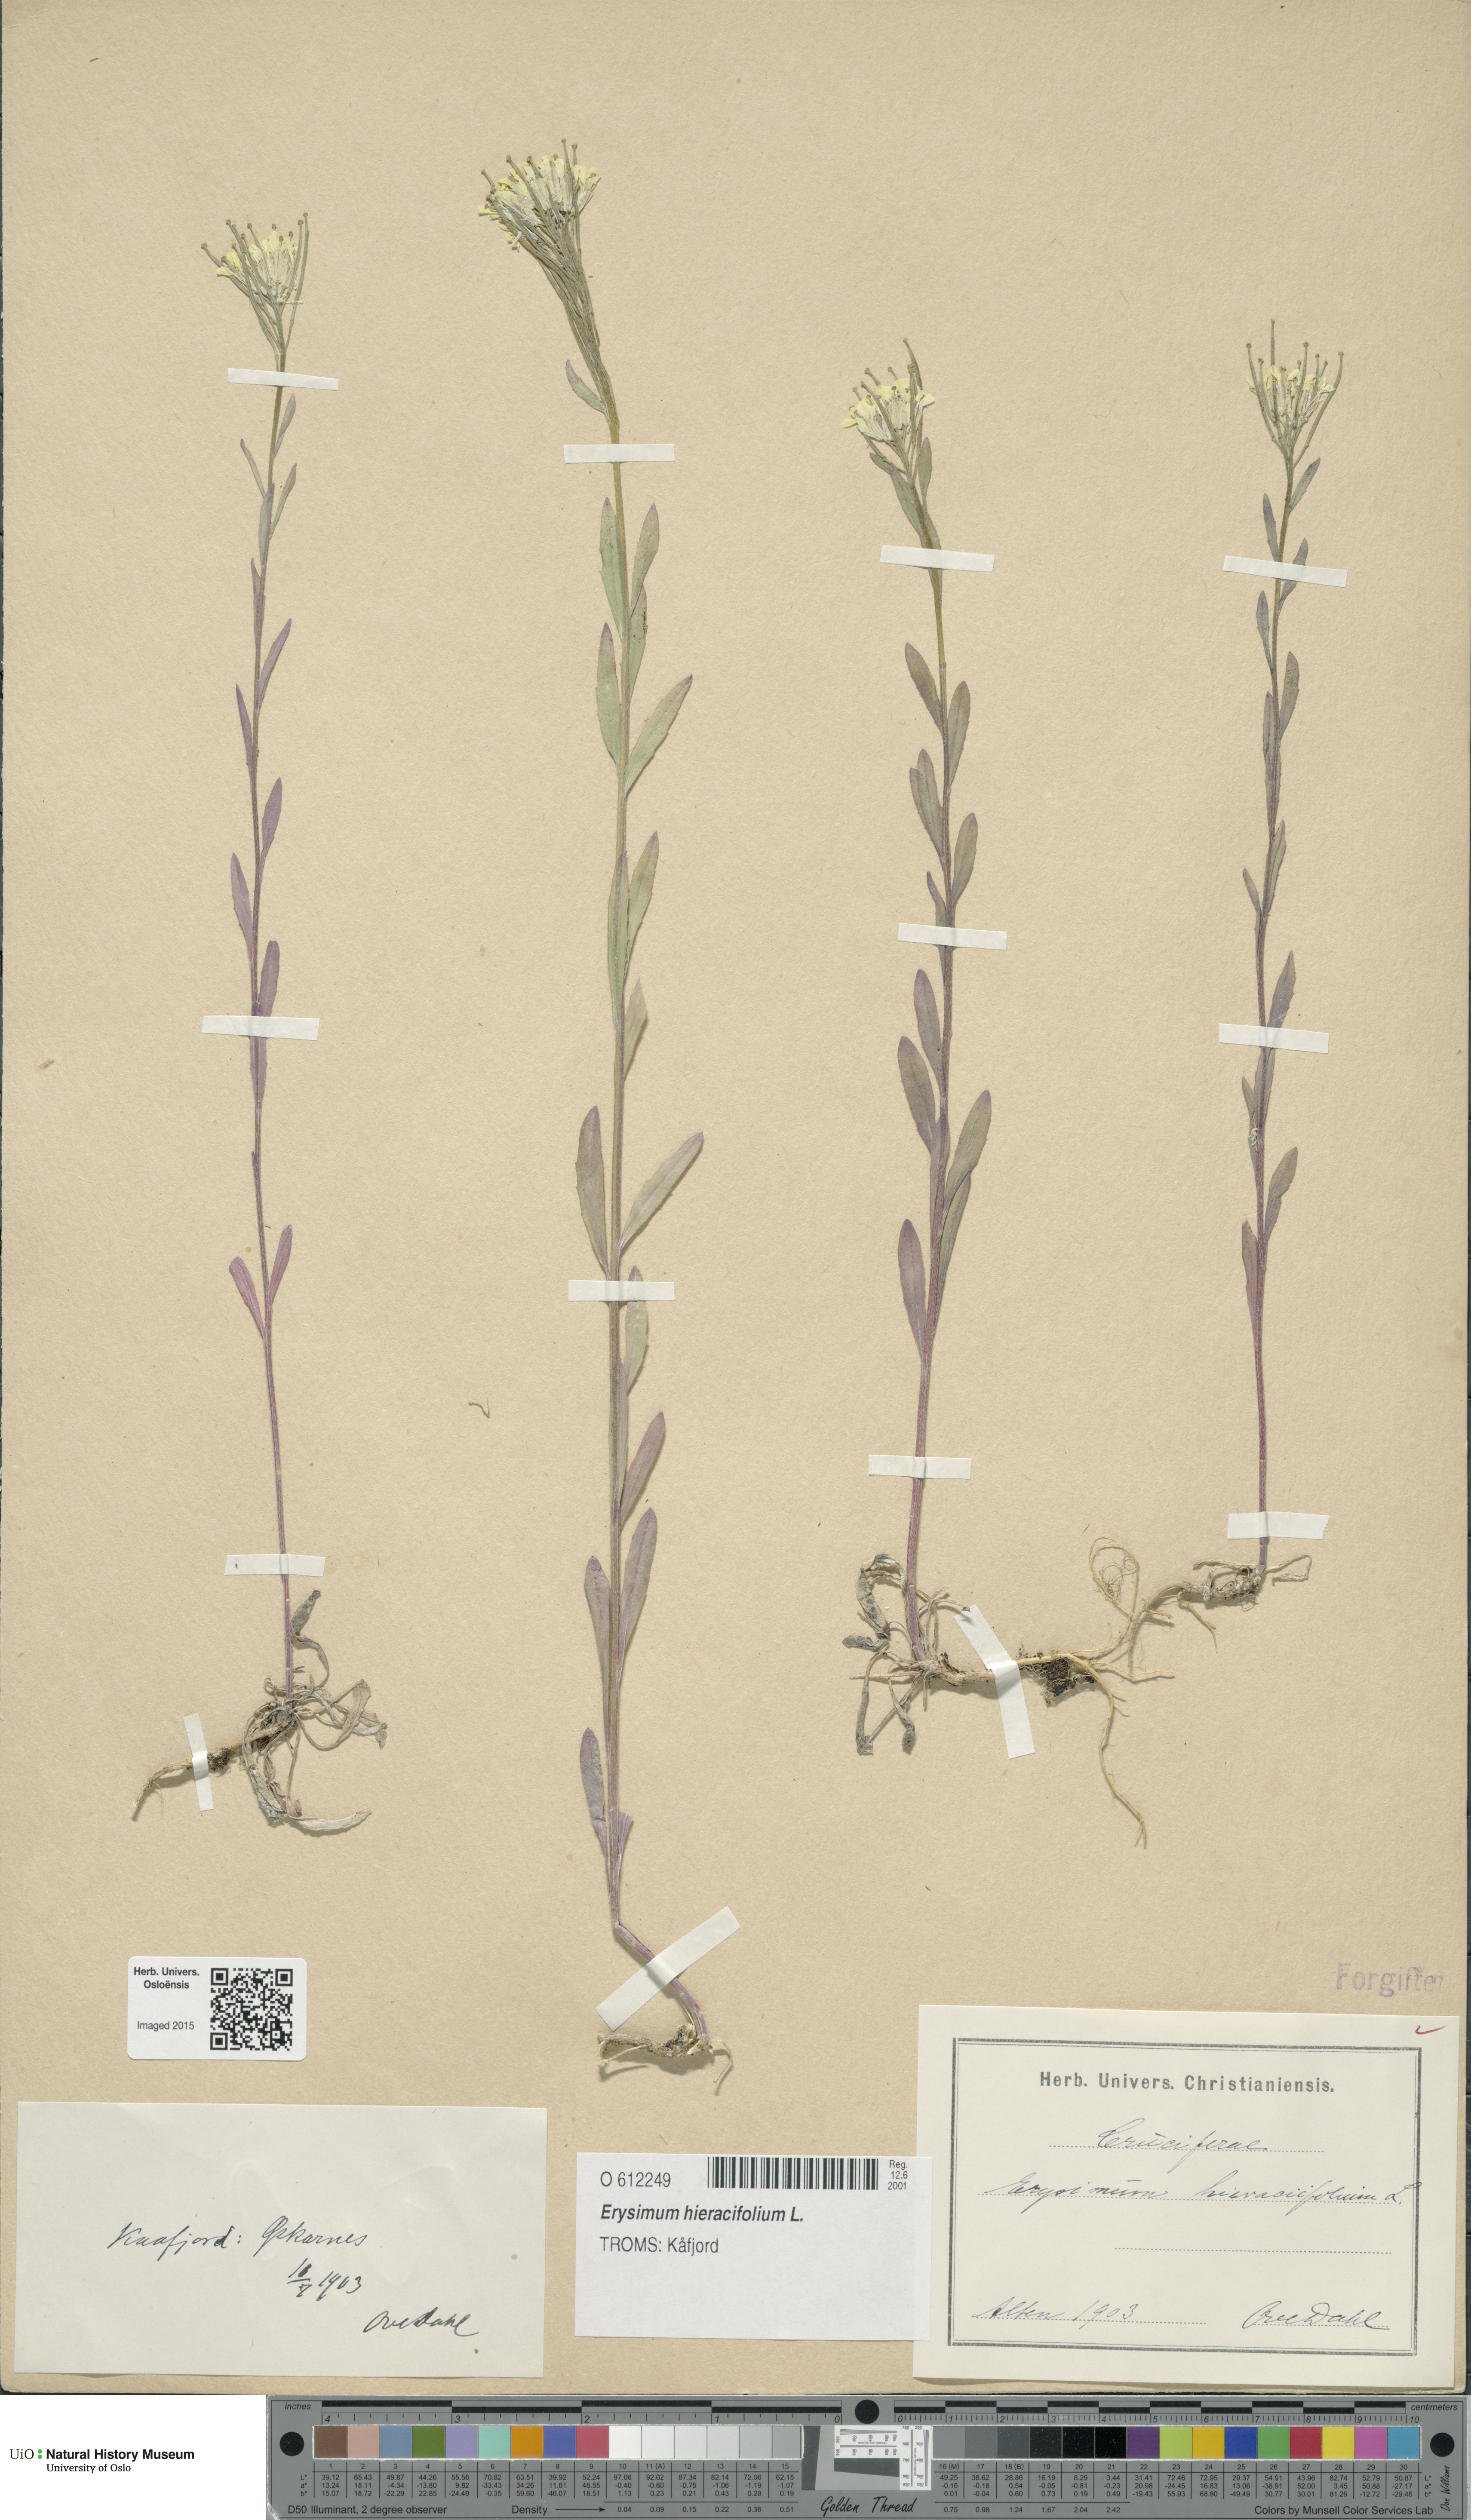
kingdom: Plantae
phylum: Tracheophyta
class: Magnoliopsida
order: Brassicales
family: Brassicaceae
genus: Erysimum
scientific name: Erysimum hieraciifolium
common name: European wallflower
